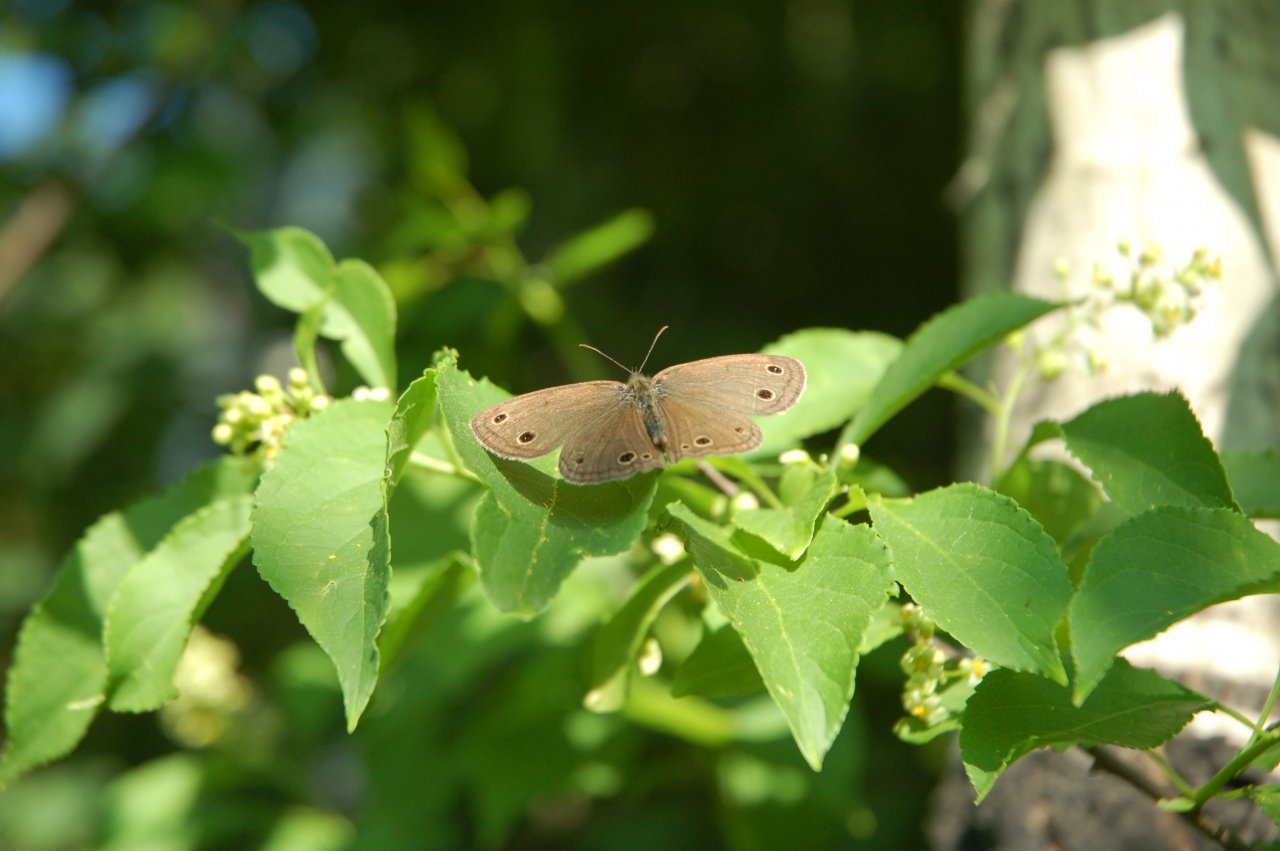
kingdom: Animalia
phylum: Arthropoda
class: Insecta
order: Lepidoptera
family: Nymphalidae
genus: Euptychia
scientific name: Euptychia cymela
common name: Little Wood Satyr
